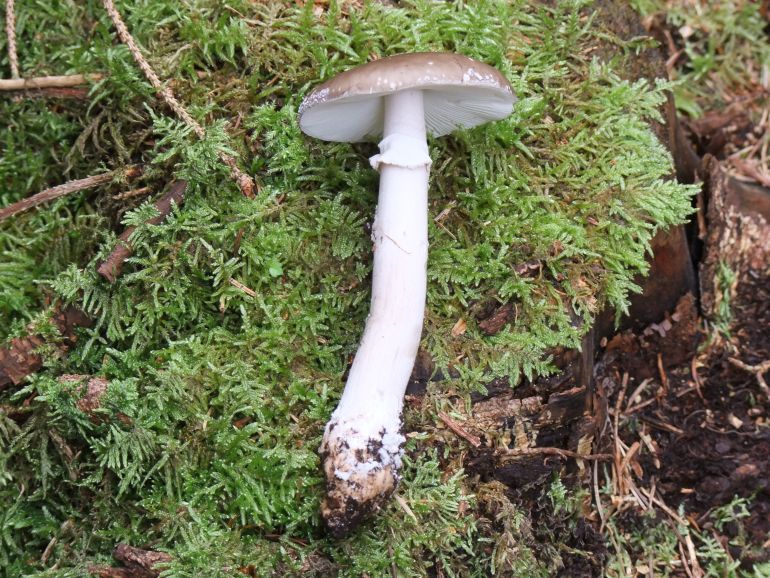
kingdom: Fungi
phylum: Basidiomycota
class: Agaricomycetes
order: Agaricales
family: Amanitaceae
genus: Amanita
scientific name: Amanita
